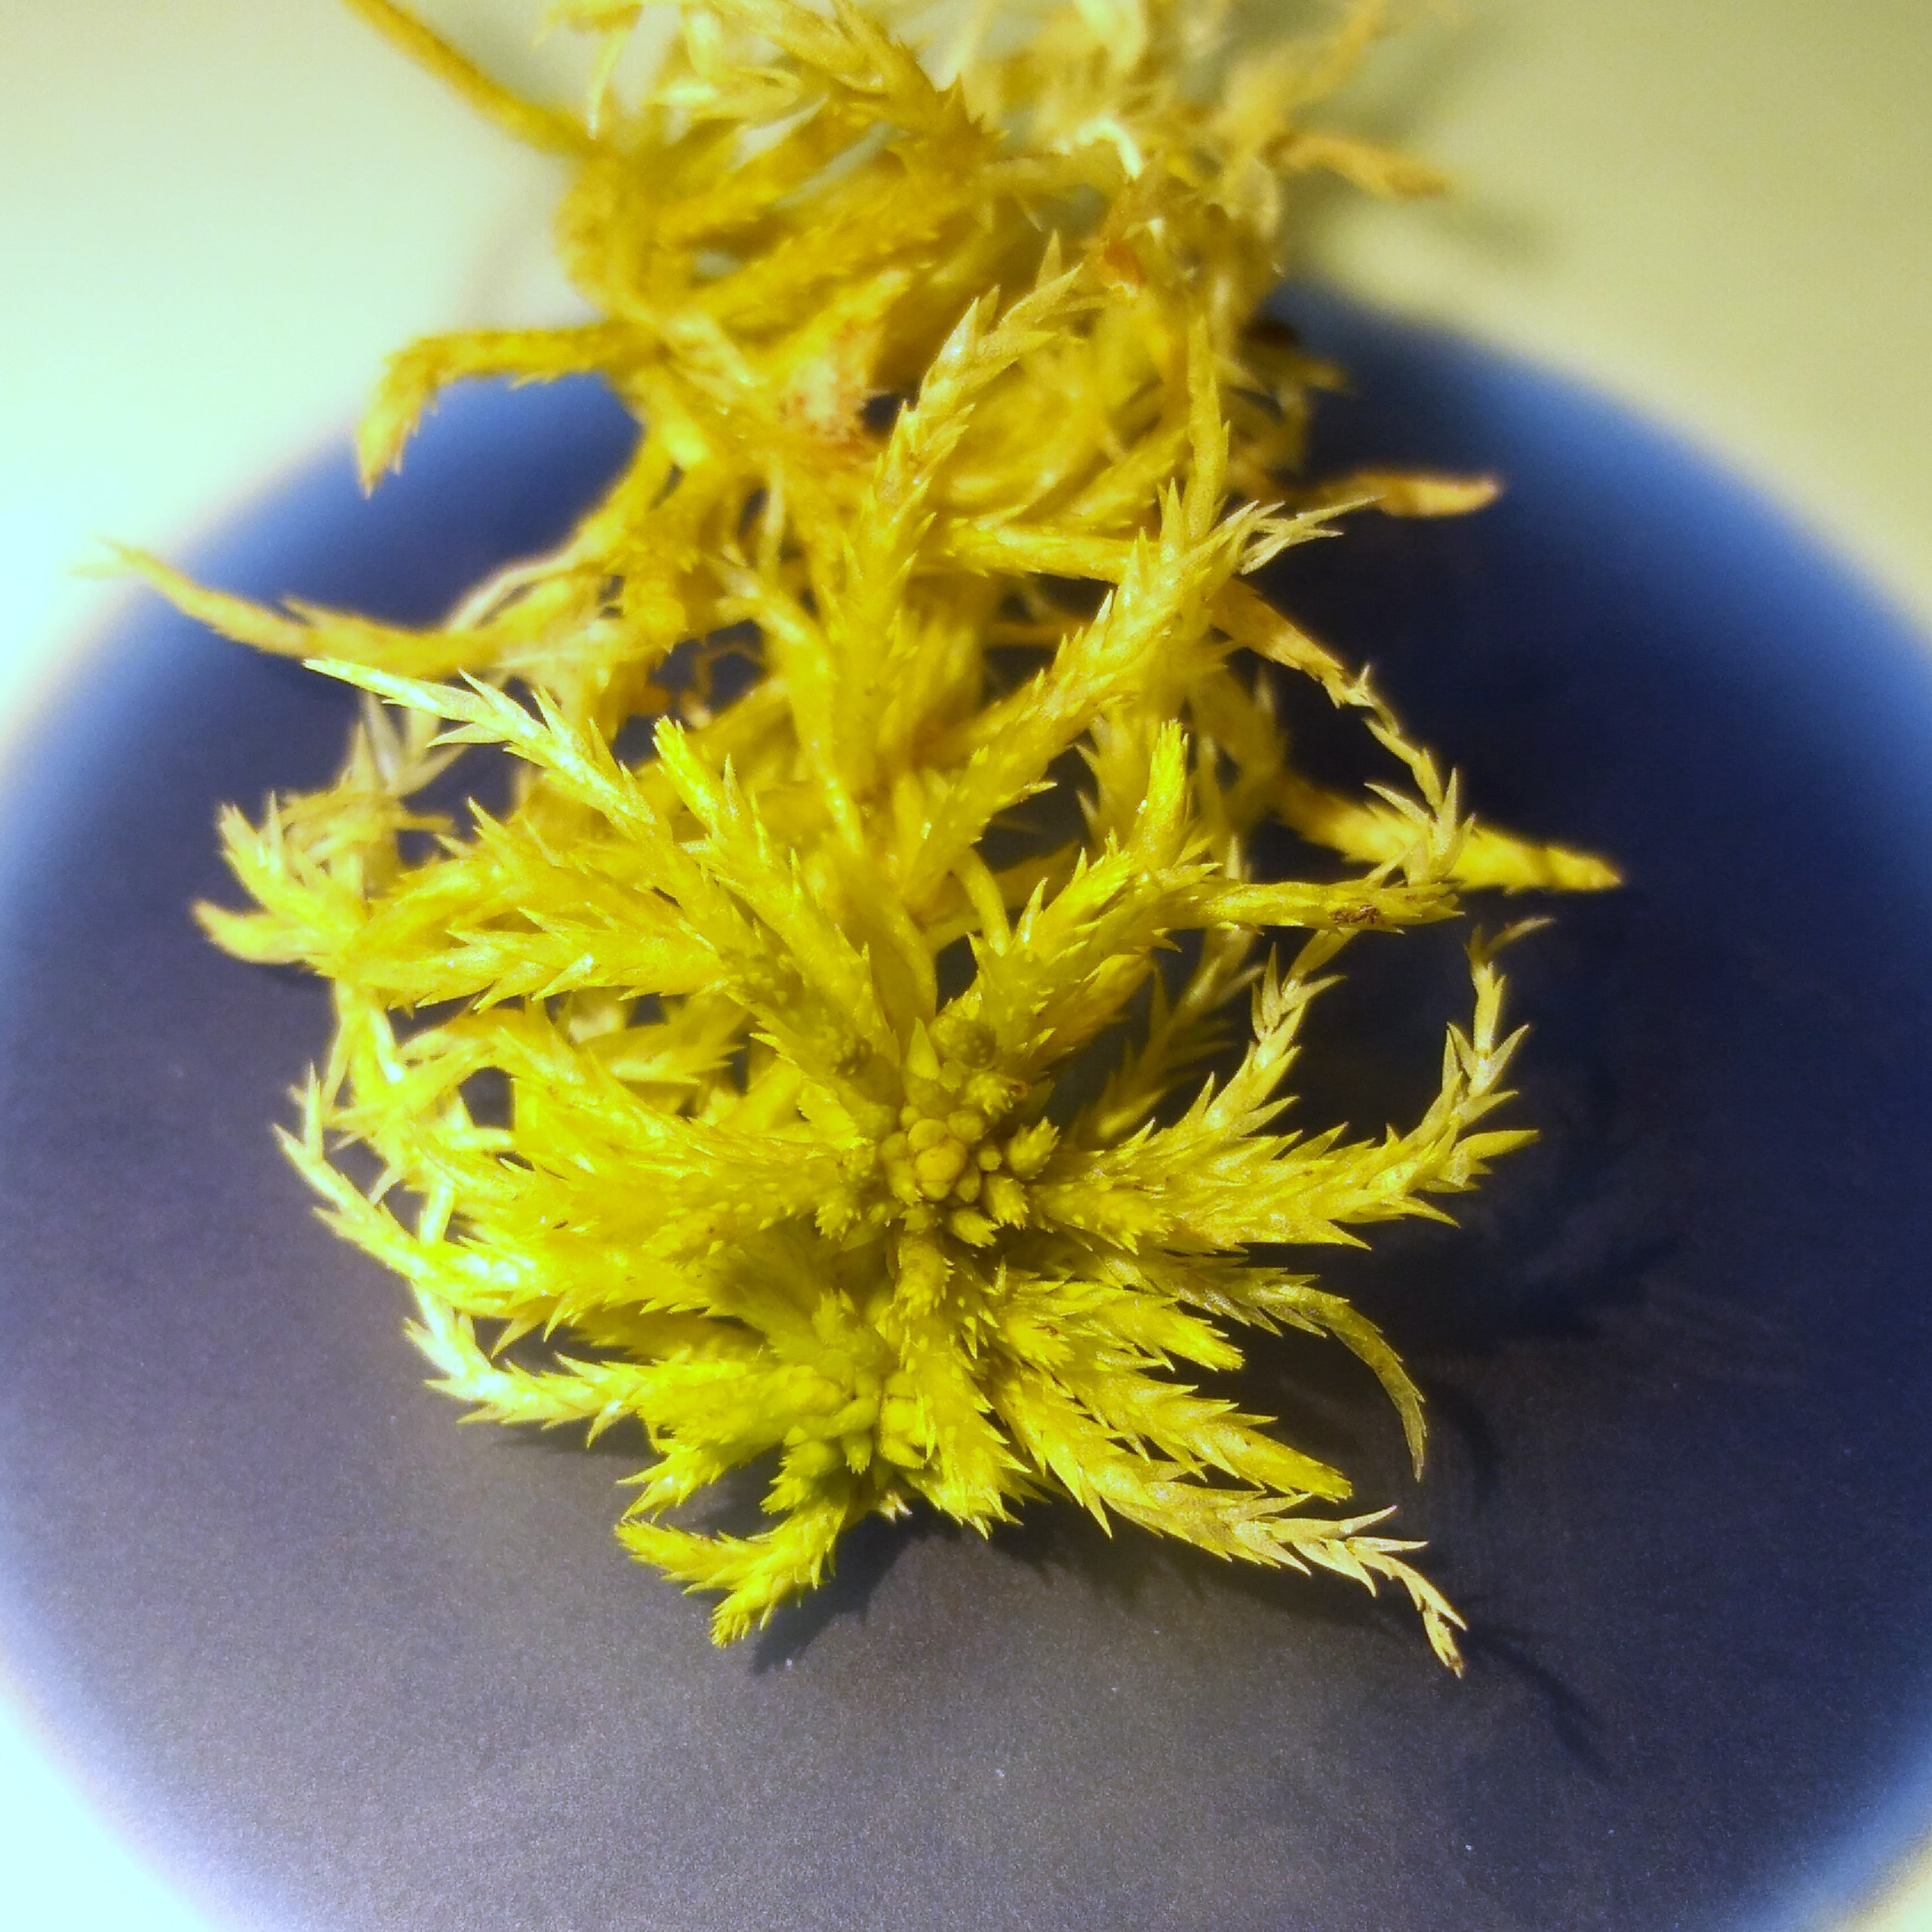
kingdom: Plantae
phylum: Bryophyta
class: Sphagnopsida
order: Sphagnales
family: Sphagnaceae
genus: Sphagnum
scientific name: Sphagnum girgensohnii
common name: Stiv tørvemos
